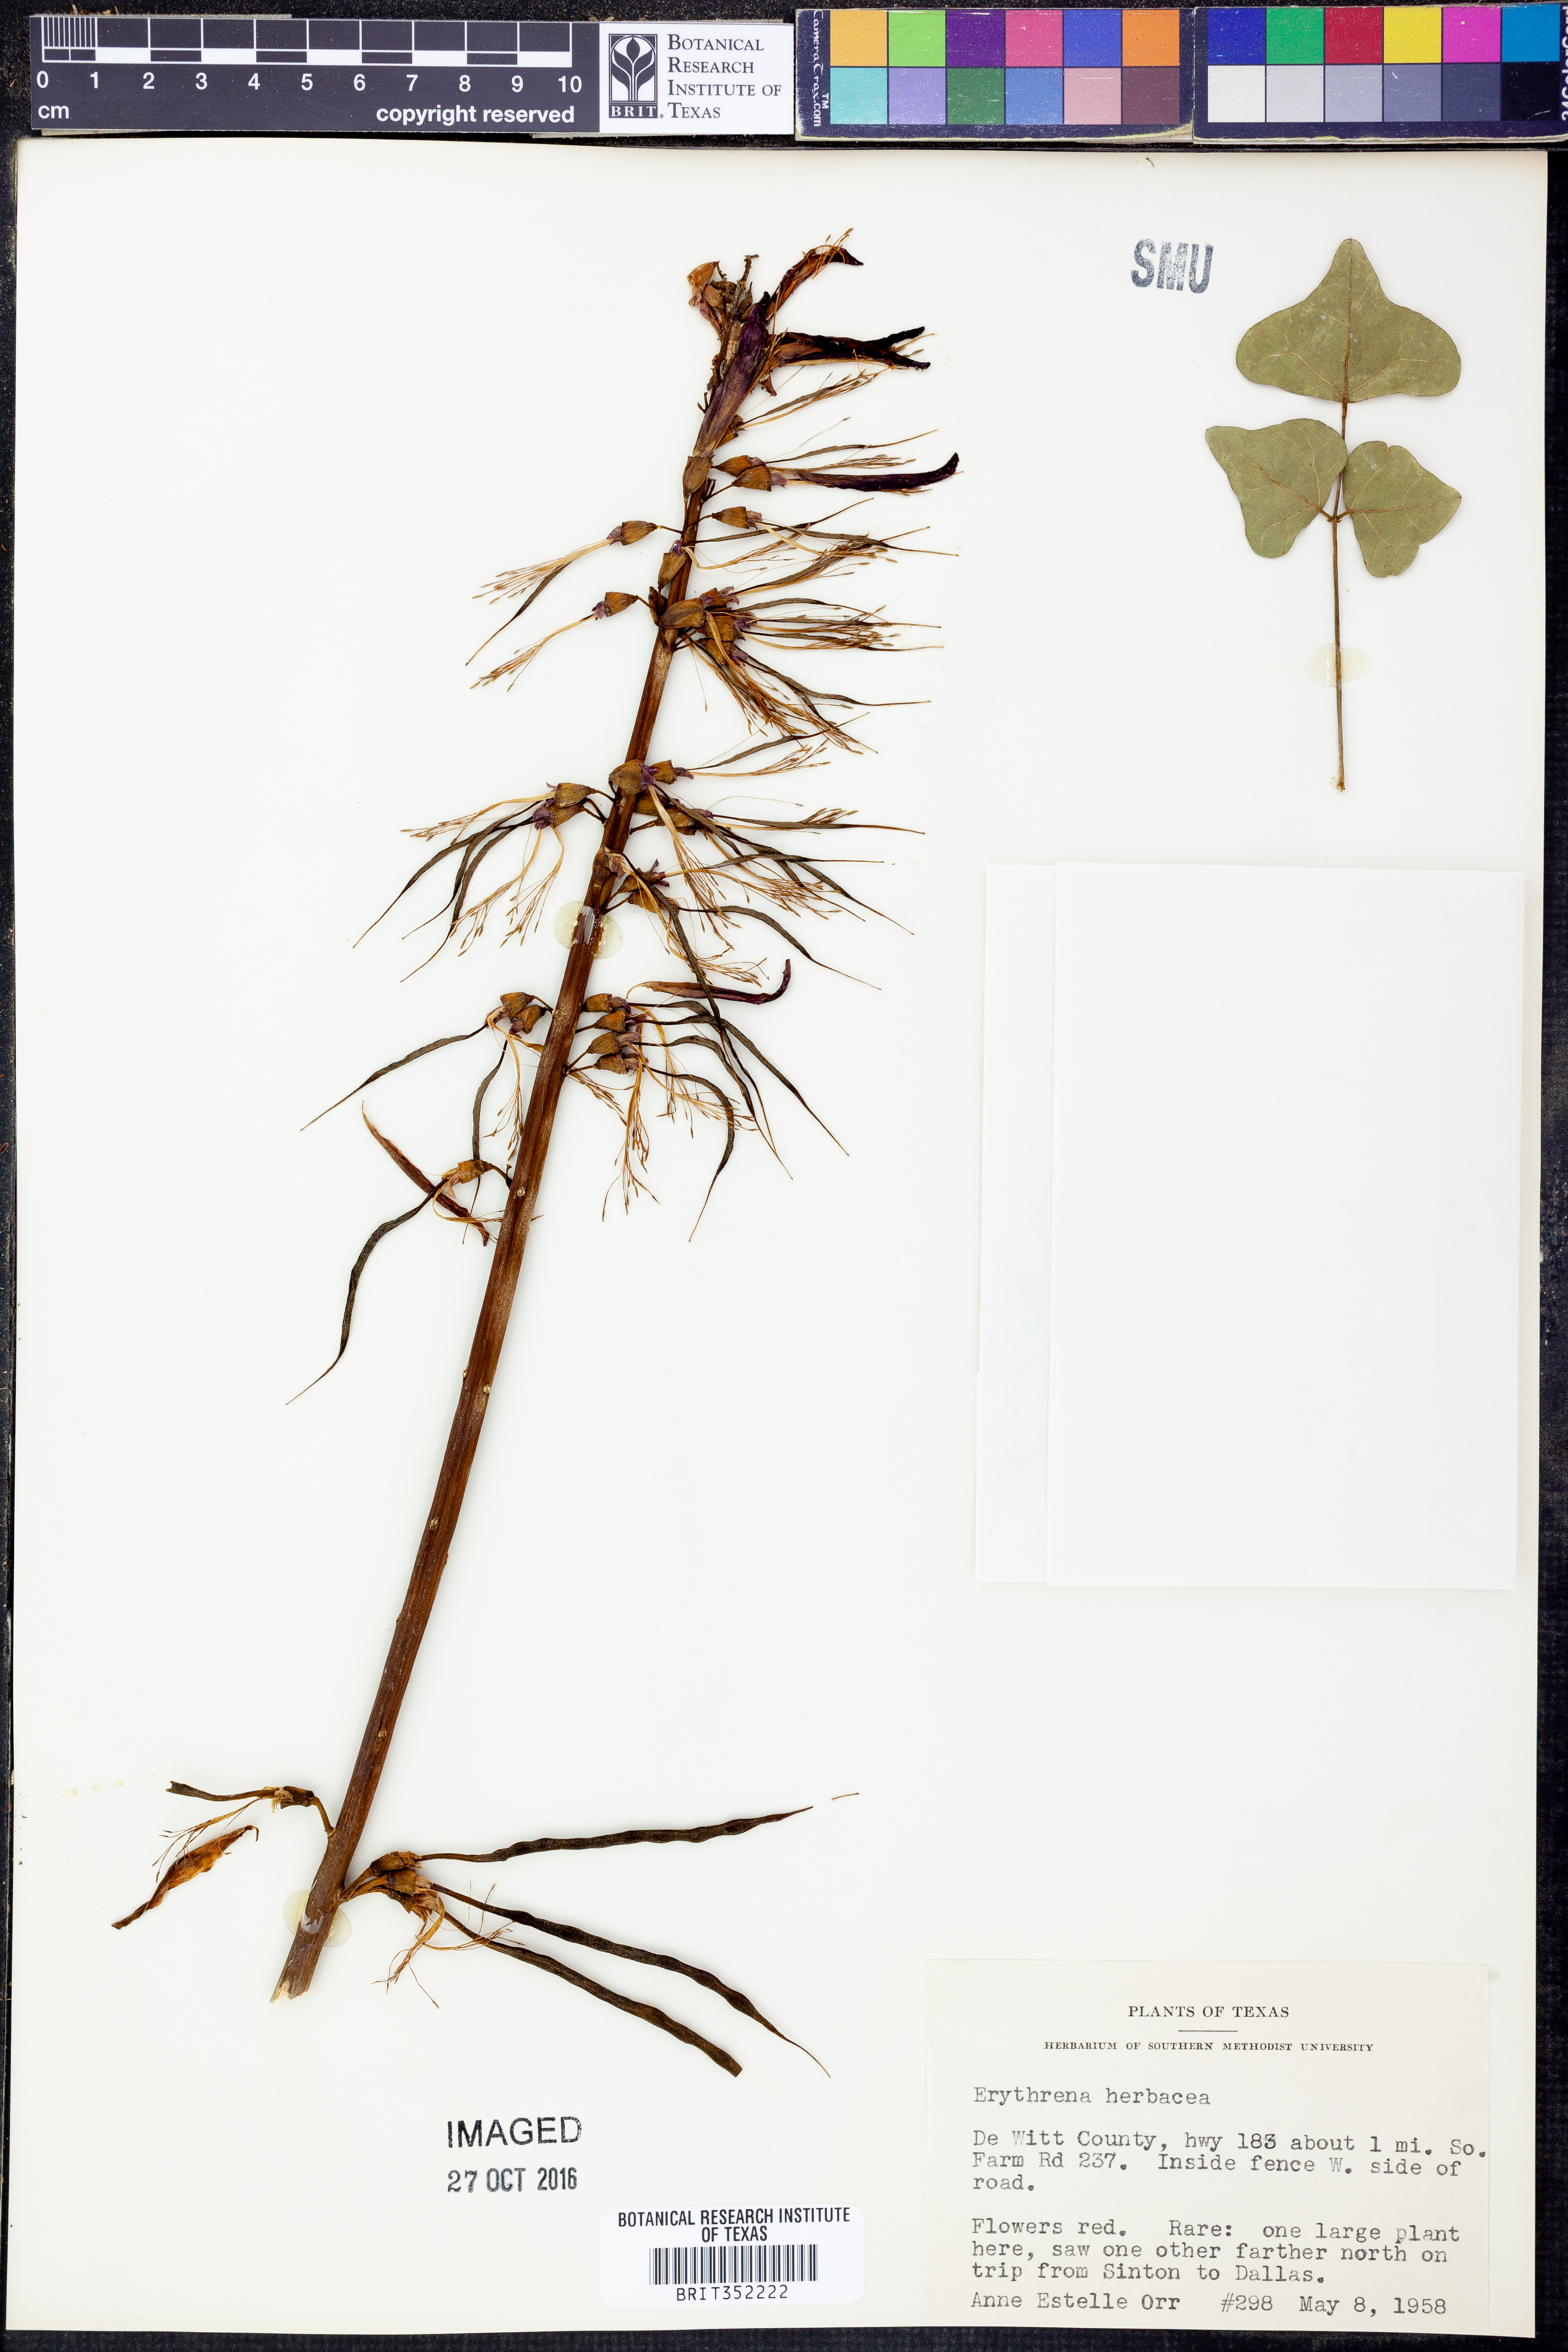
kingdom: Plantae
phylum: Tracheophyta
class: Magnoliopsida
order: Fabales
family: Fabaceae
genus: Erythrina
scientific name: Erythrina herbacea
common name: Coral-bean
